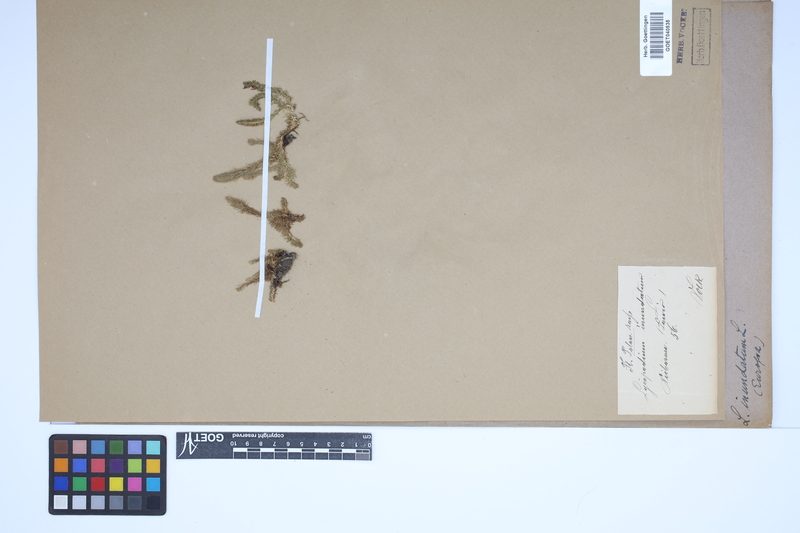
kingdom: Plantae
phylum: Tracheophyta
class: Lycopodiopsida
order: Lycopodiales
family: Lycopodiaceae
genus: Lycopodiella
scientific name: Lycopodiella inundata
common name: Marsh clubmoss
